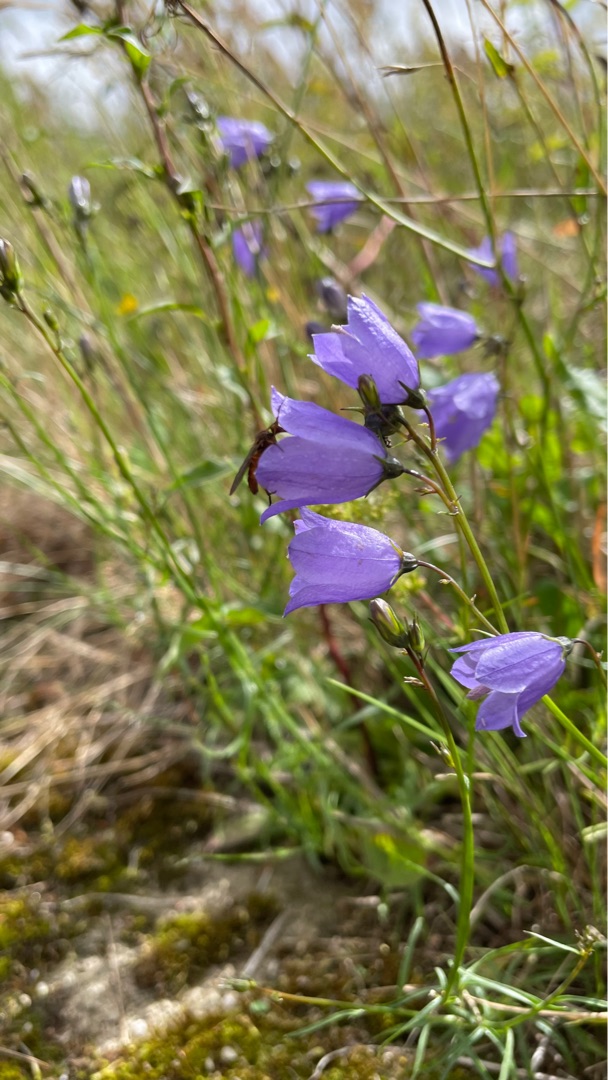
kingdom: Plantae
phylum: Tracheophyta
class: Magnoliopsida
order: Asterales
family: Campanulaceae
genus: Campanula
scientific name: Campanula rotundifolia
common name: Liden klokke
